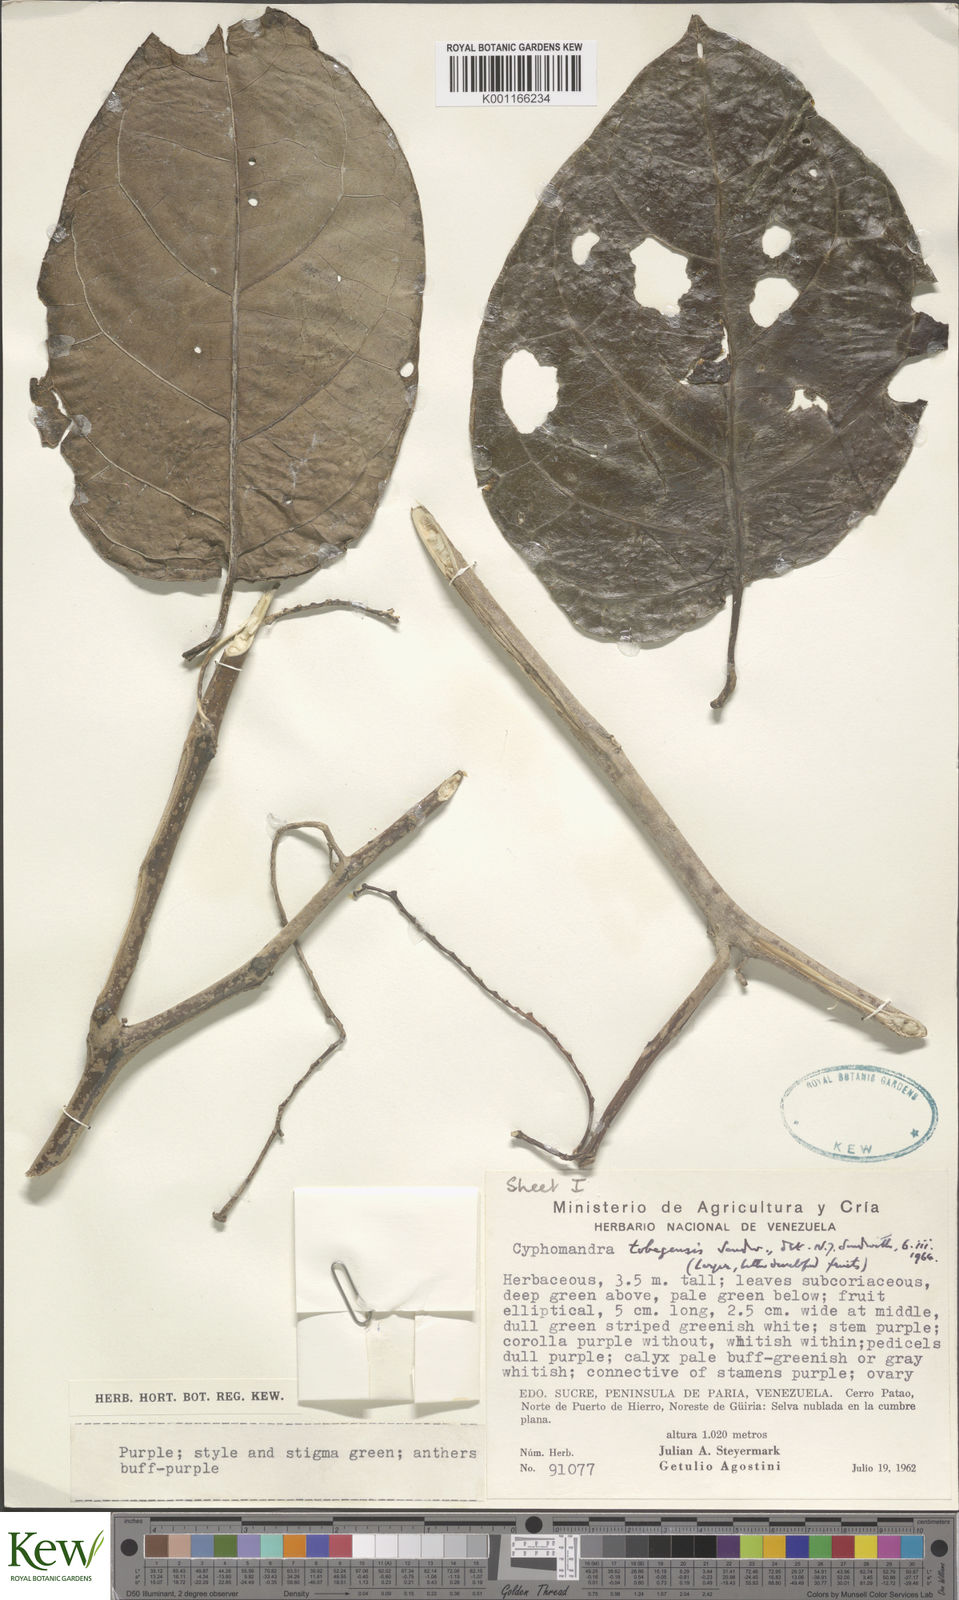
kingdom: Plantae
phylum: Tracheophyta
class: Magnoliopsida
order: Solanales
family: Solanaceae
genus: Solanum
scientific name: Solanum tobagense
